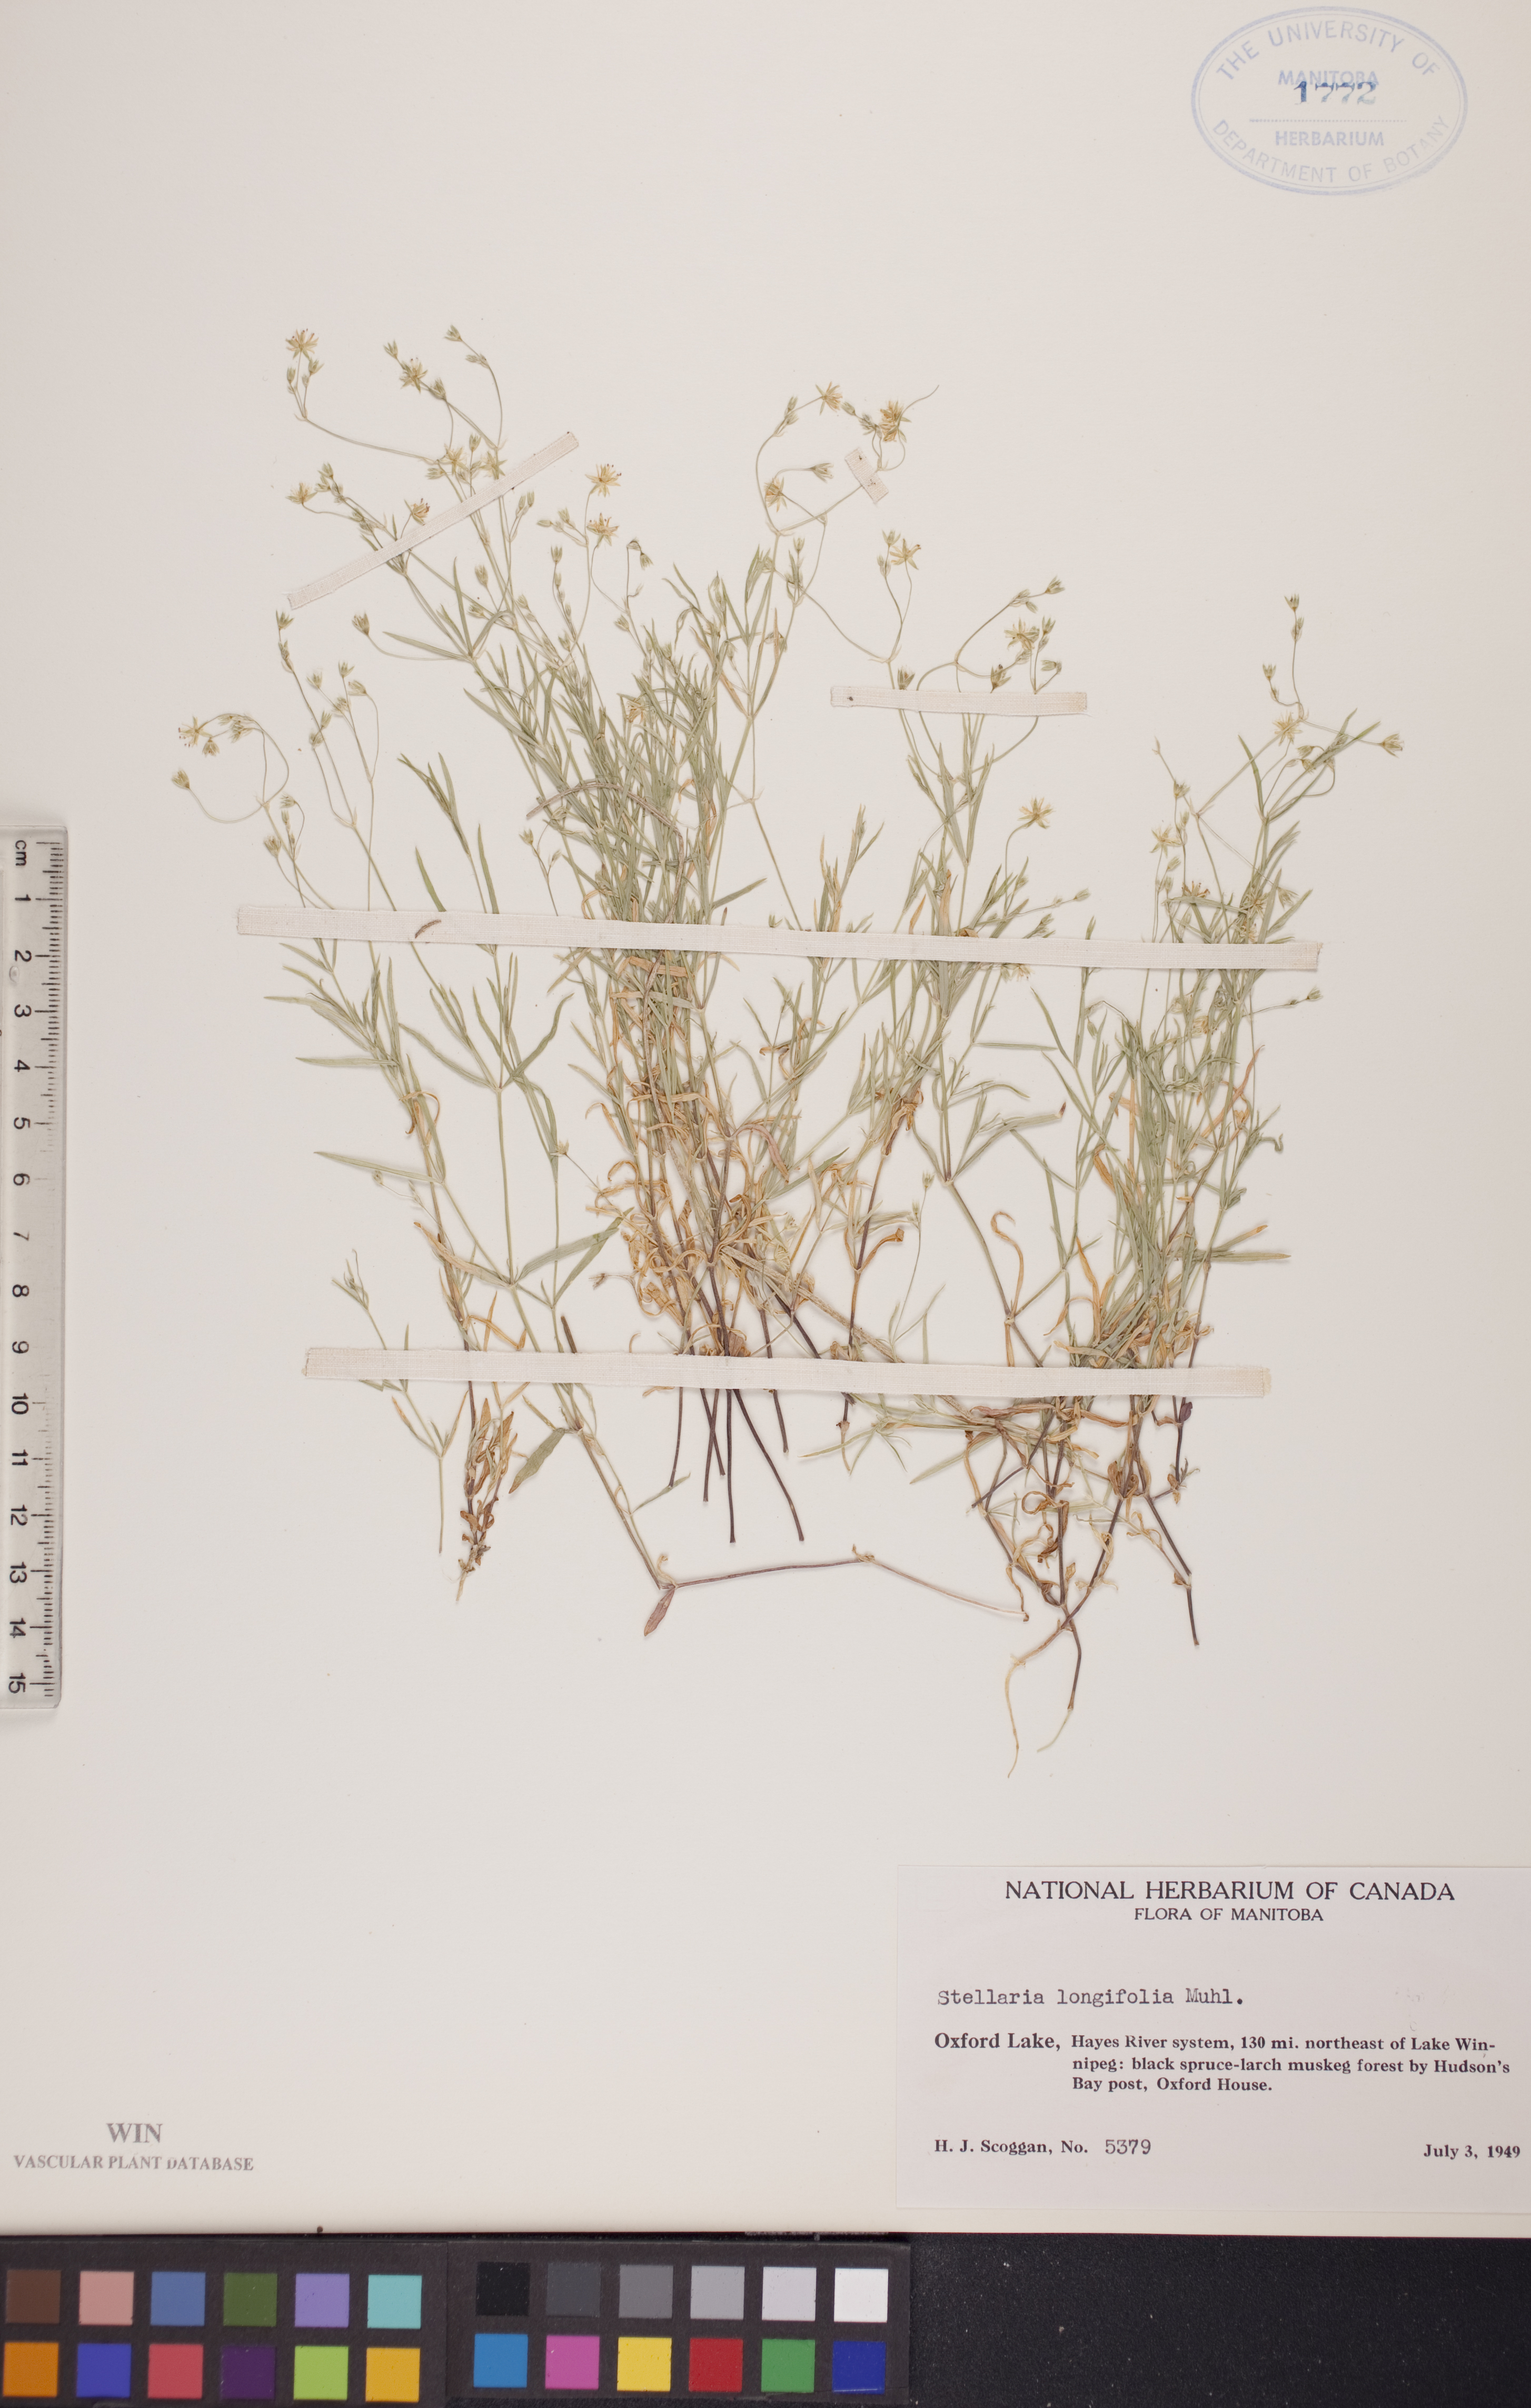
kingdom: Plantae
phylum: Tracheophyta
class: Magnoliopsida
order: Caryophyllales
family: Caryophyllaceae
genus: Stellaria
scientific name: Stellaria longifolia
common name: Long-leaved chickweed
